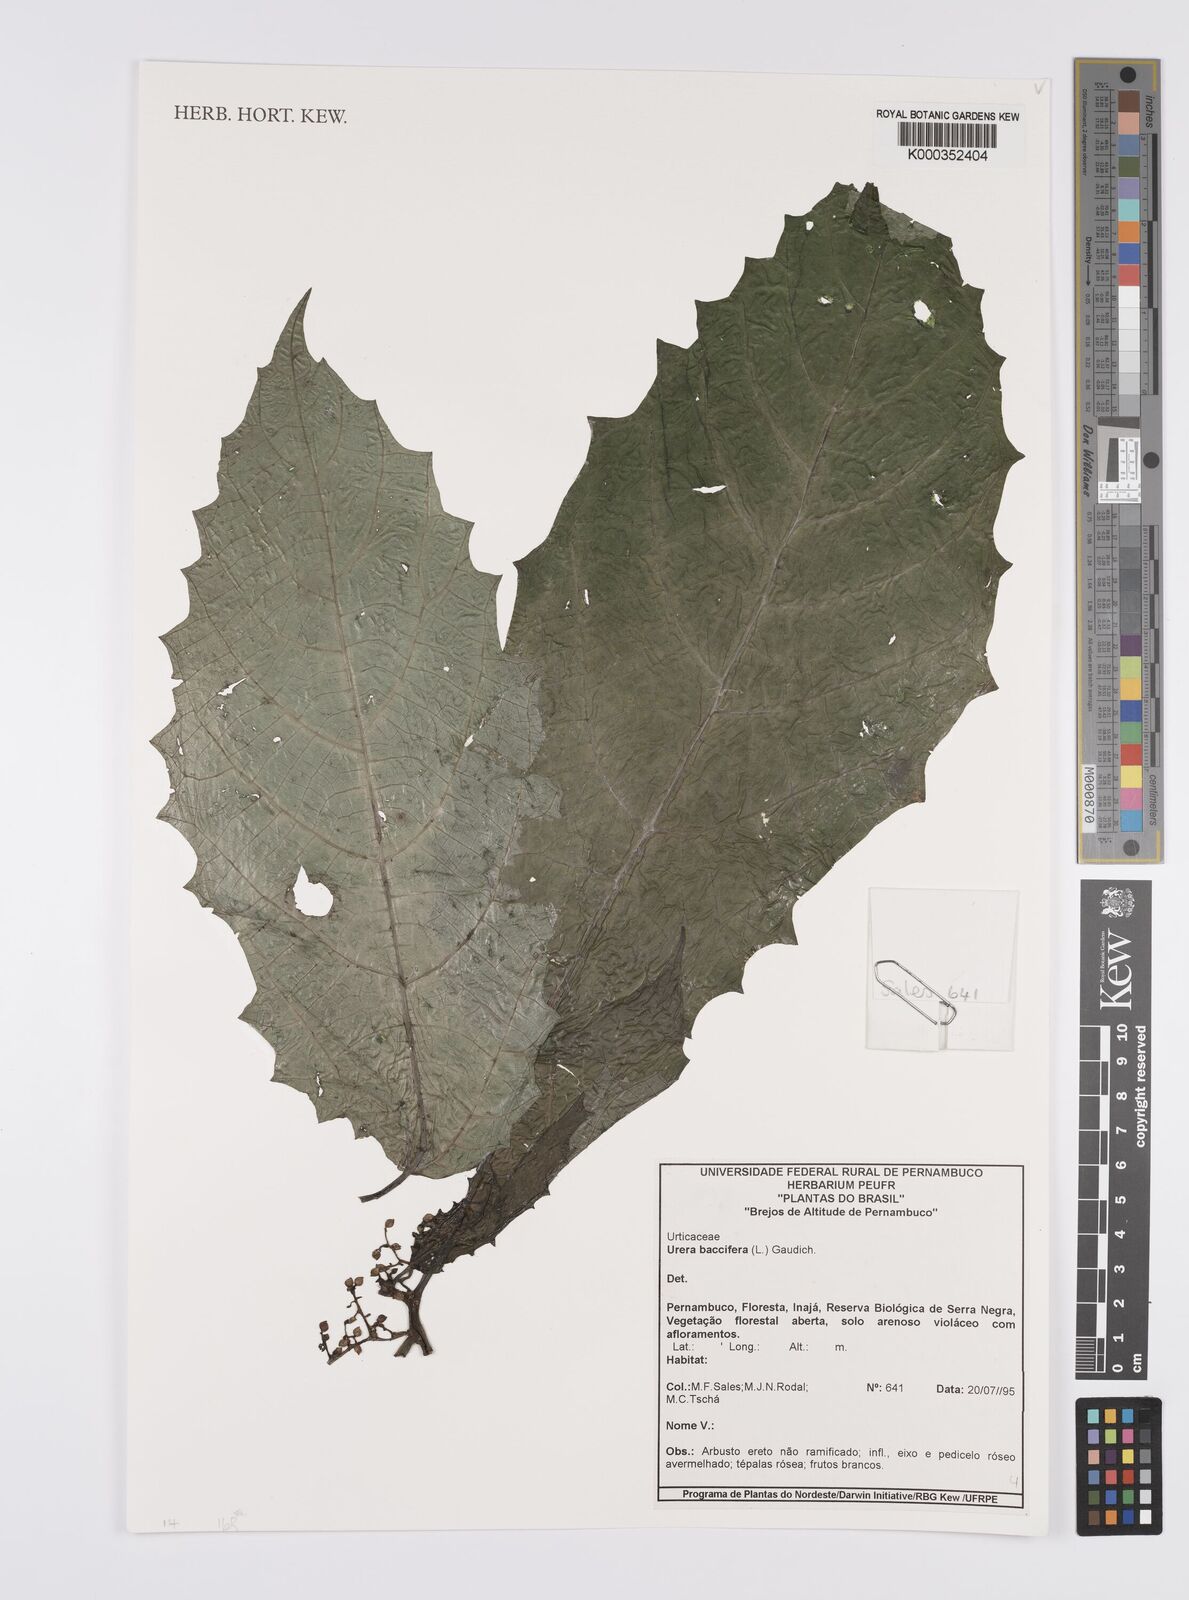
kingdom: Plantae
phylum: Tracheophyta
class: Magnoliopsida
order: Rosales
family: Urticaceae
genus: Urera
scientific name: Urera
